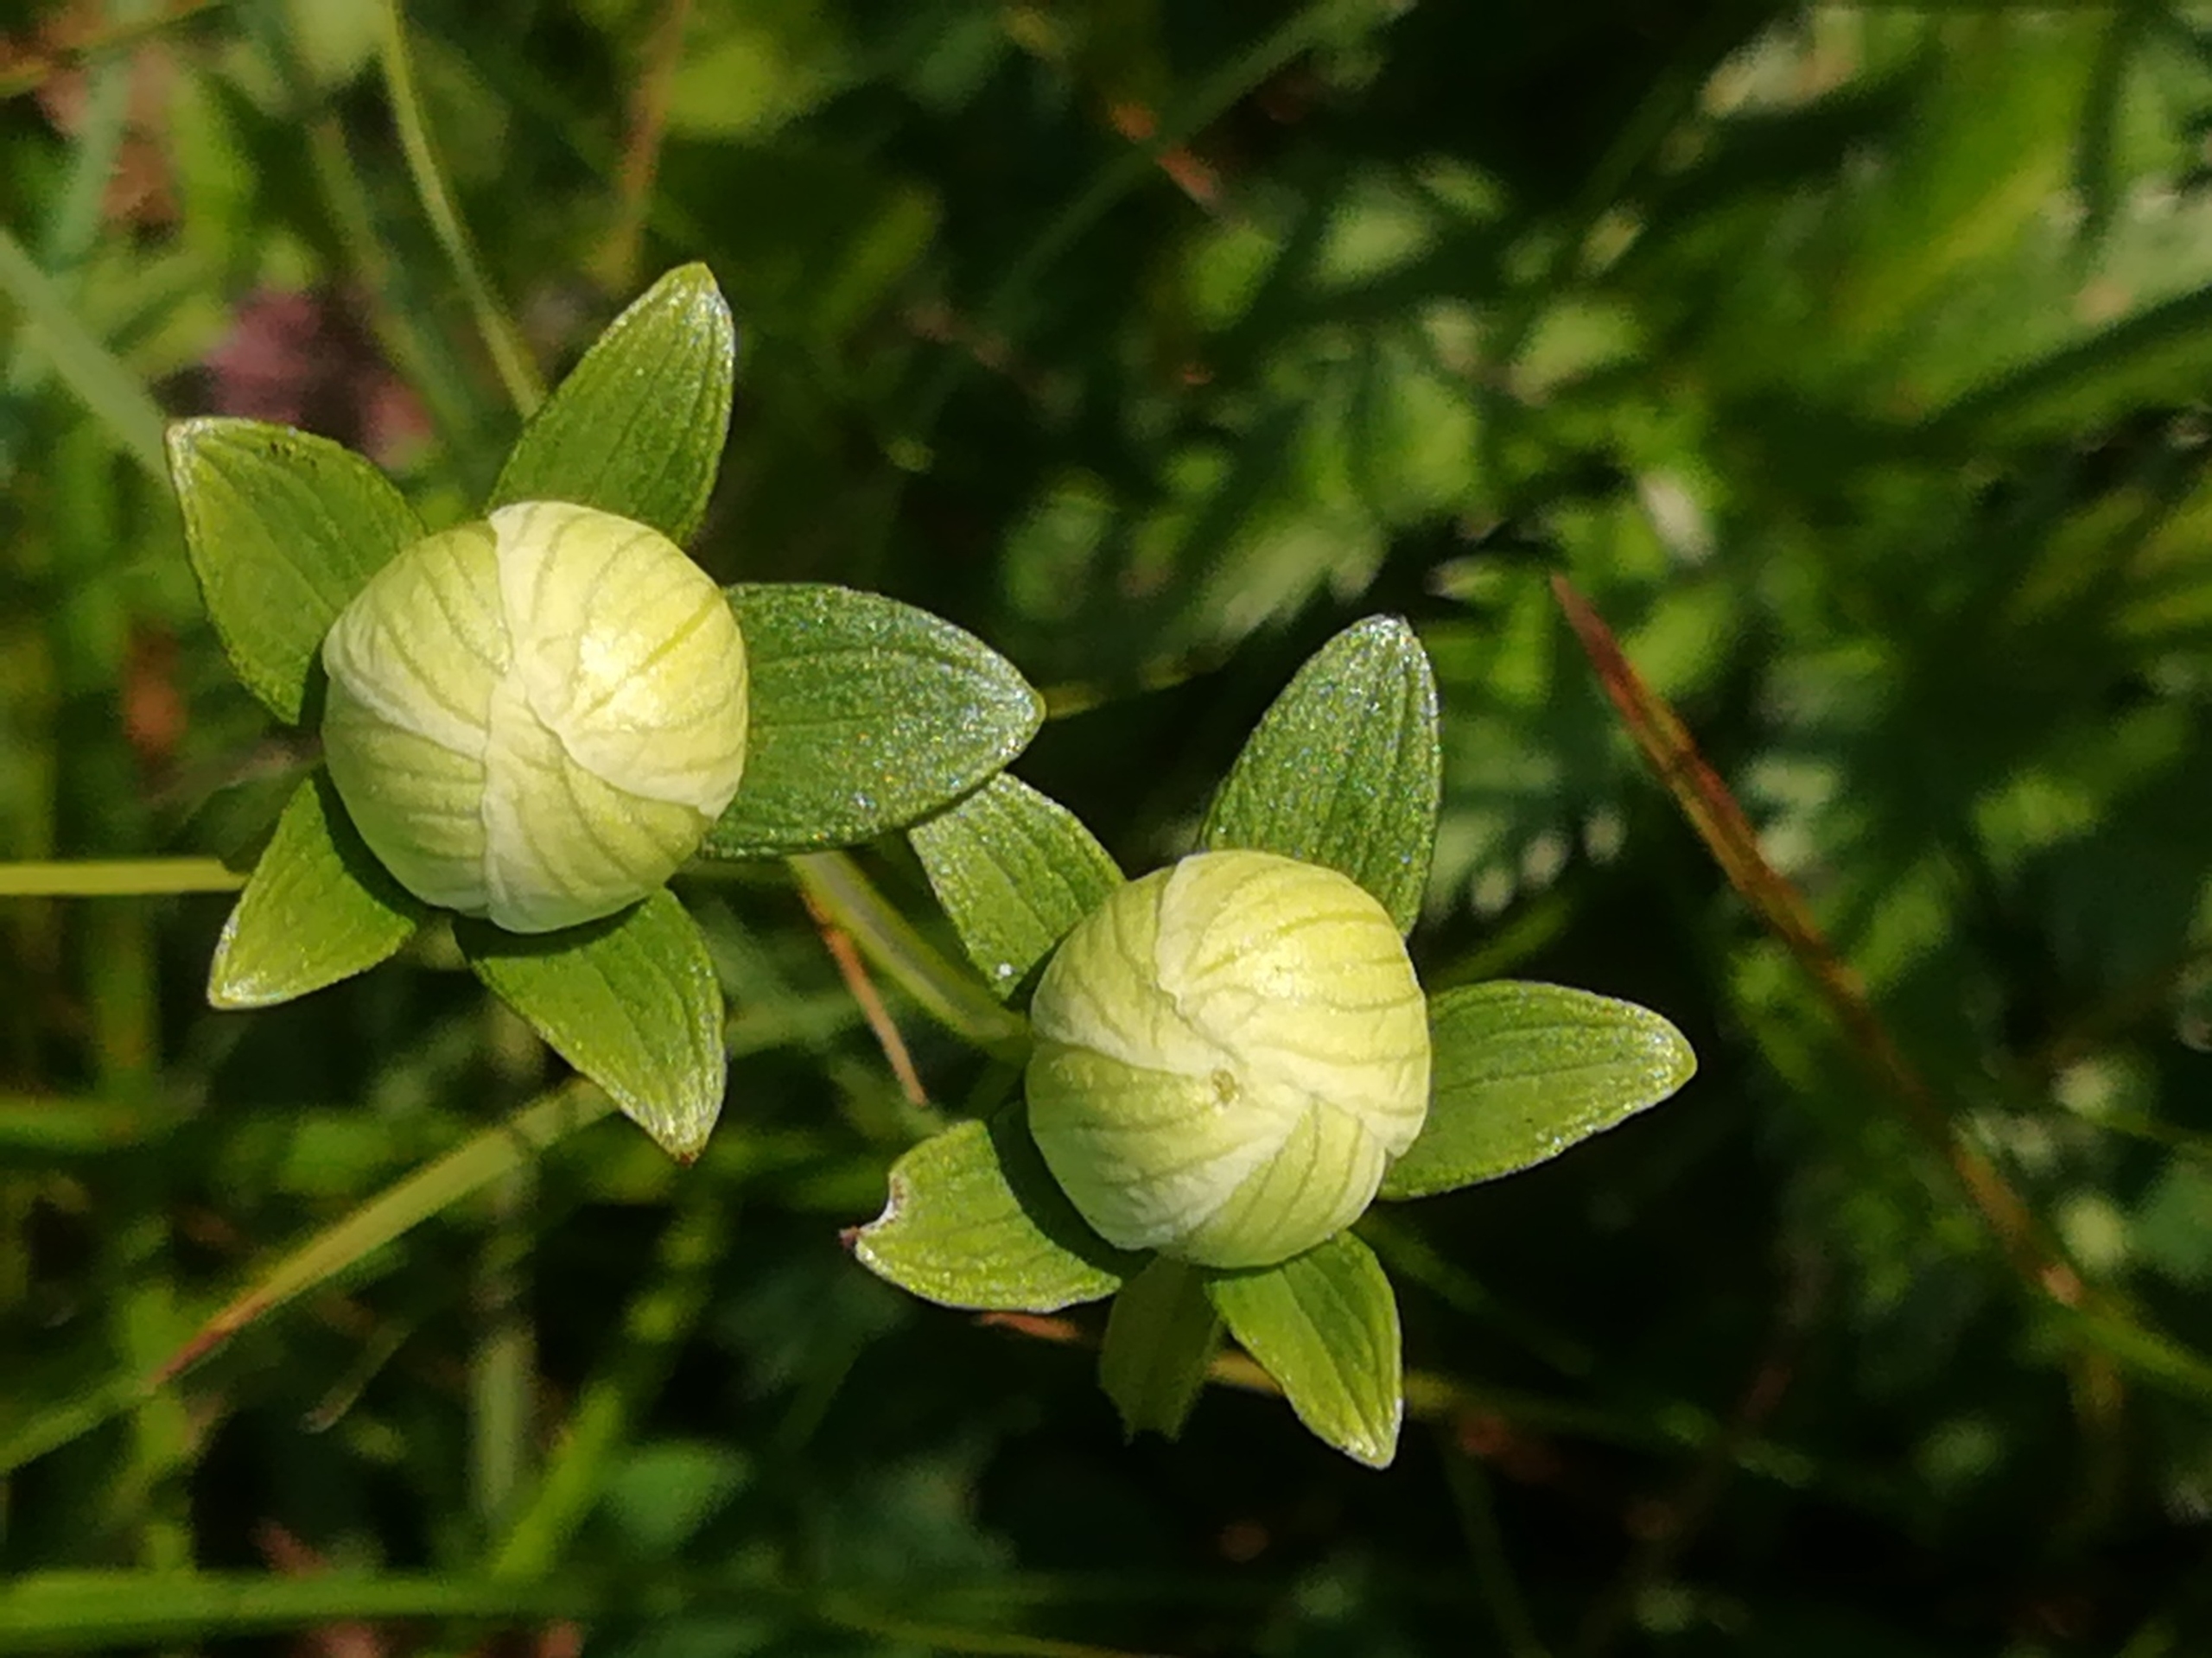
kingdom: Plantae
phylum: Tracheophyta
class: Magnoliopsida
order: Celastrales
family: Parnassiaceae
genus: Parnassia
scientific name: Parnassia palustris
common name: Leverurt
